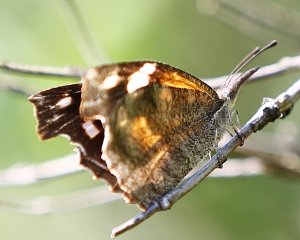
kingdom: Animalia
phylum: Arthropoda
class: Insecta
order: Lepidoptera
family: Nymphalidae
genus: Libytheana
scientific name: Libytheana carinenta
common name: American Snout
